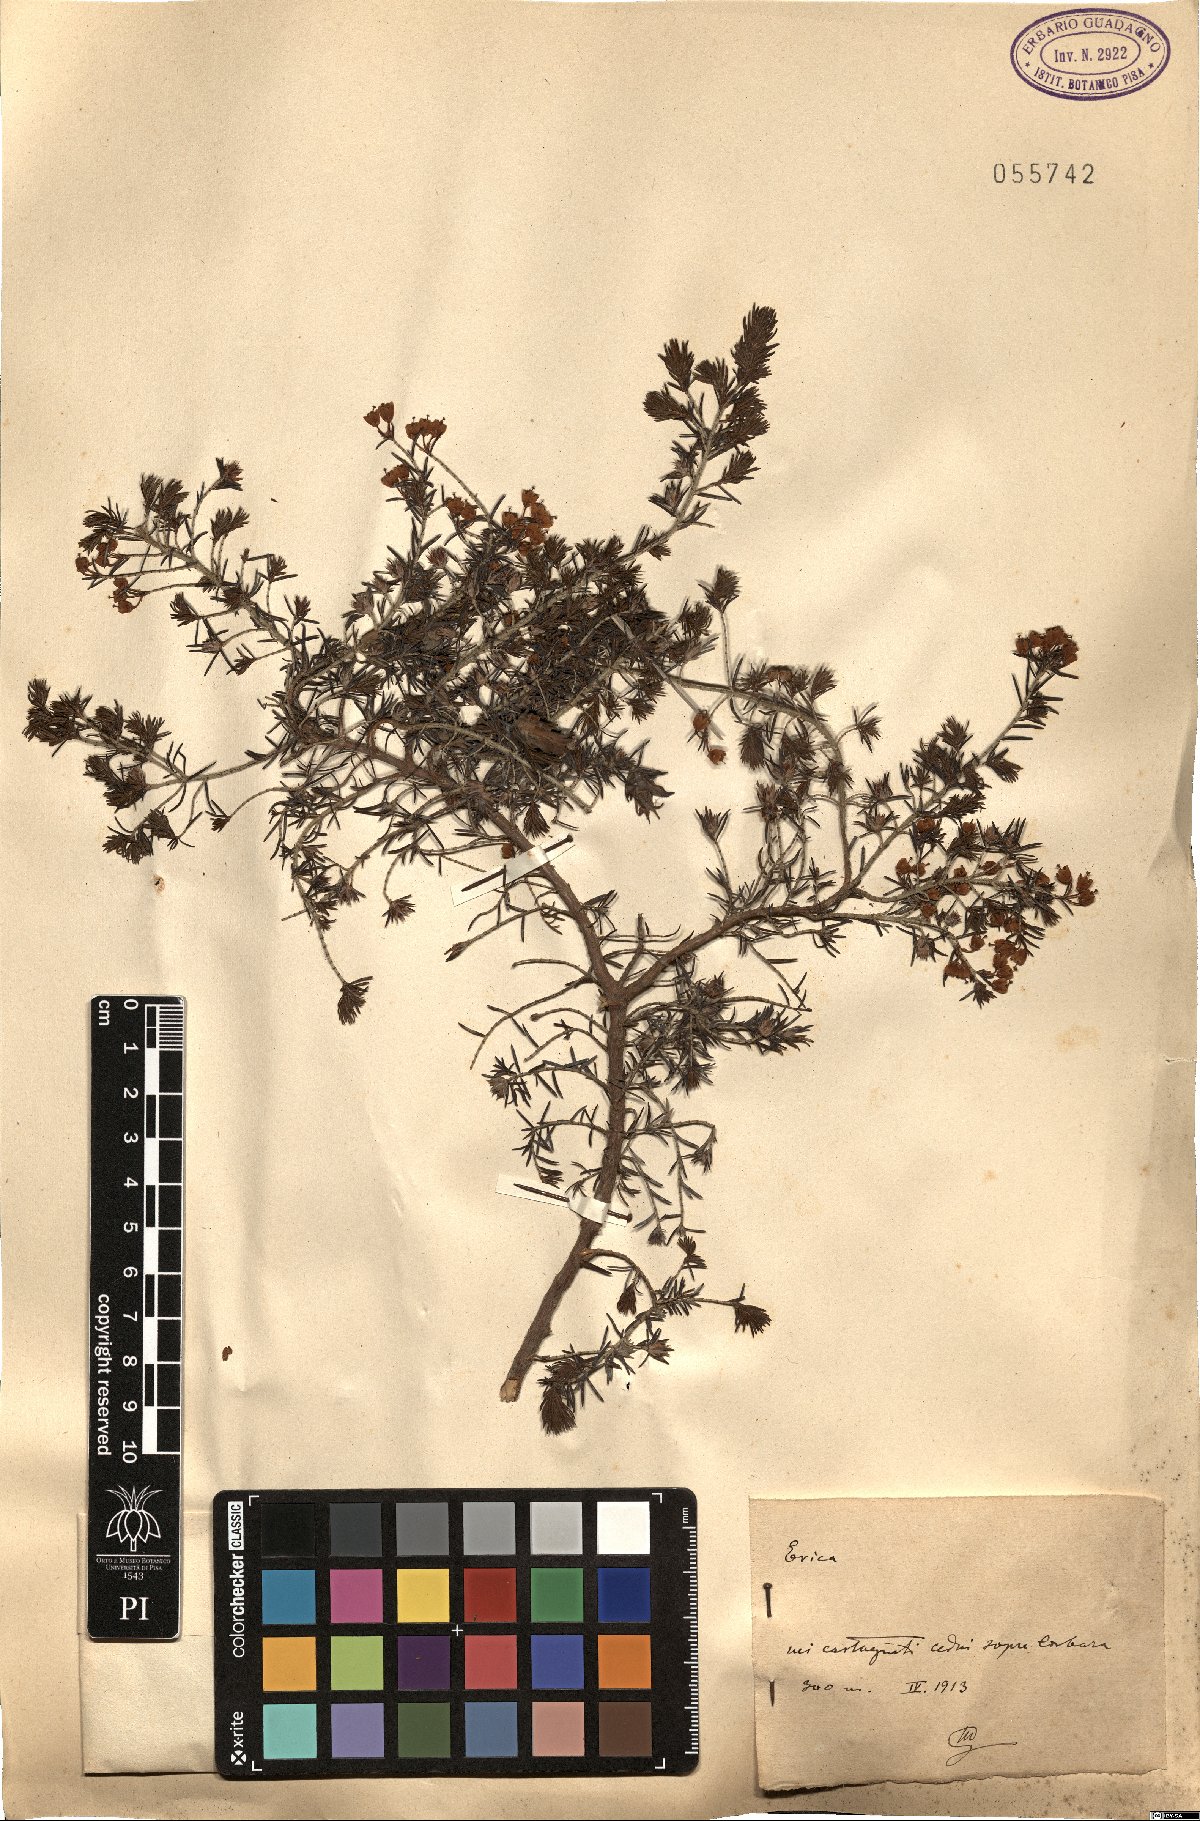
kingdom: Plantae
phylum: Tracheophyta
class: Magnoliopsida
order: Ericales
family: Ericaceae
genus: Erica
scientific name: Erica
